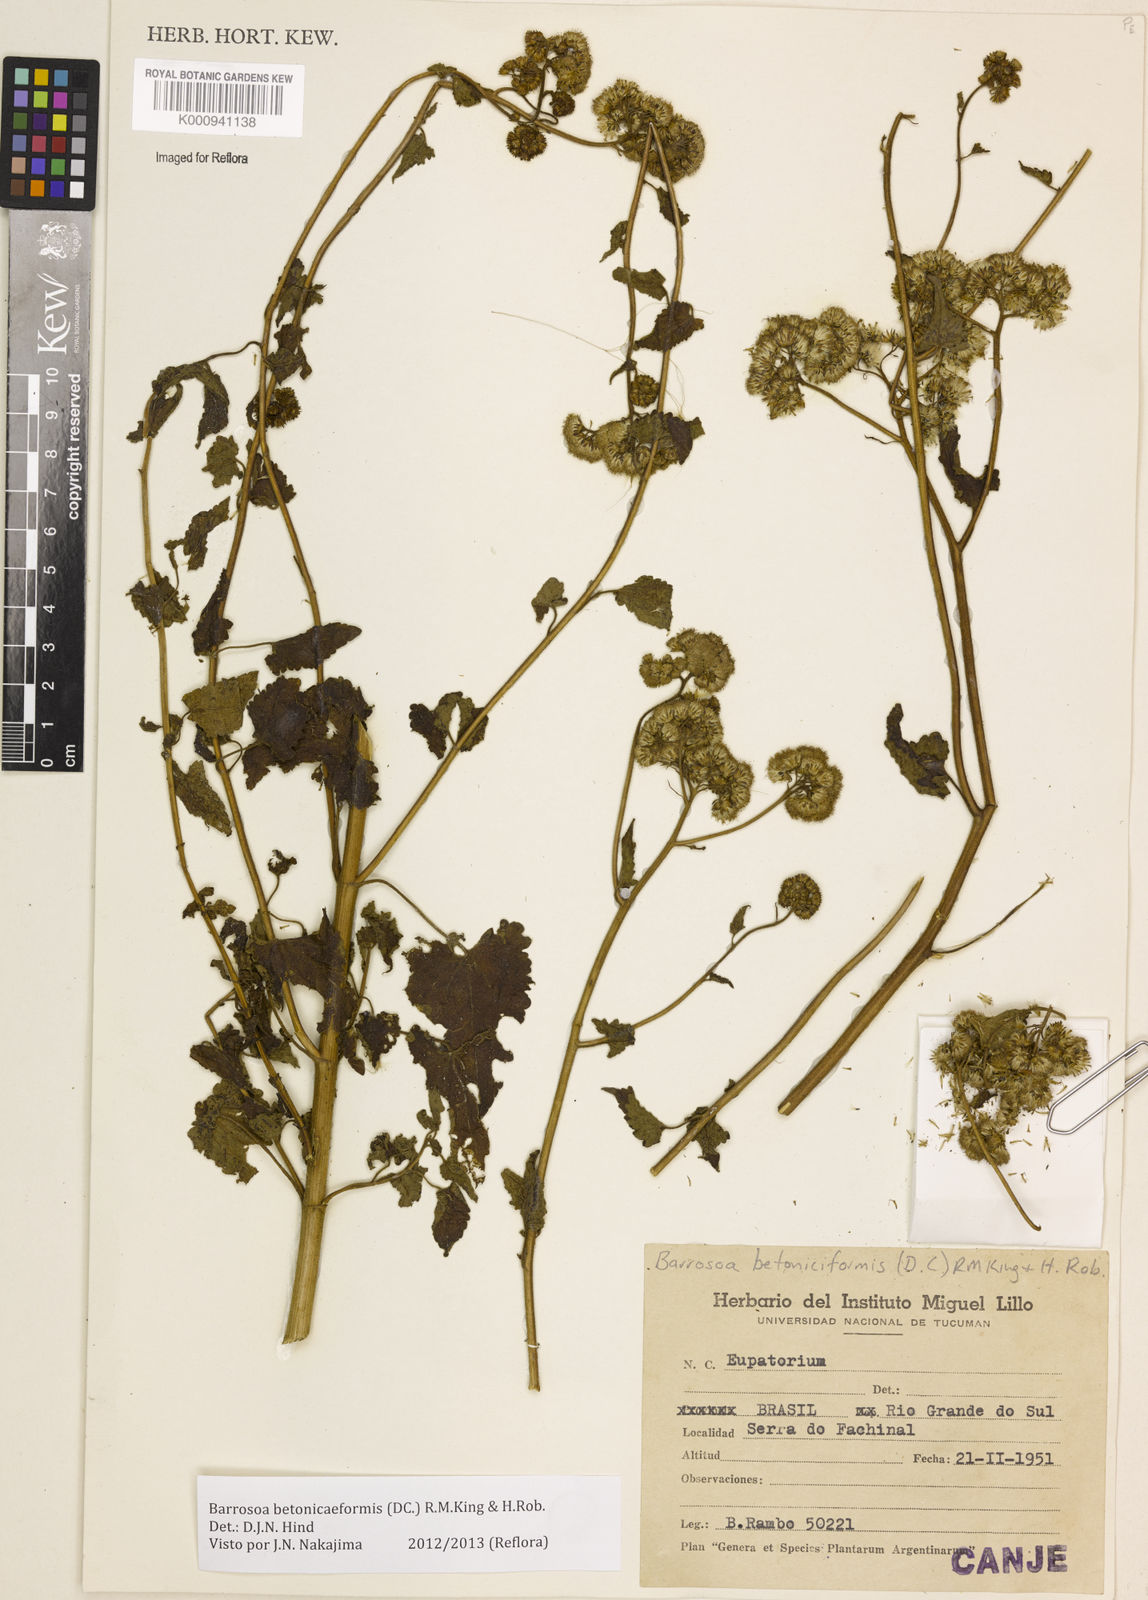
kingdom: Plantae
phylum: Tracheophyta
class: Magnoliopsida
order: Asterales
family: Asteraceae
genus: Barrosoa
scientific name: Barrosoa betoniciformis
